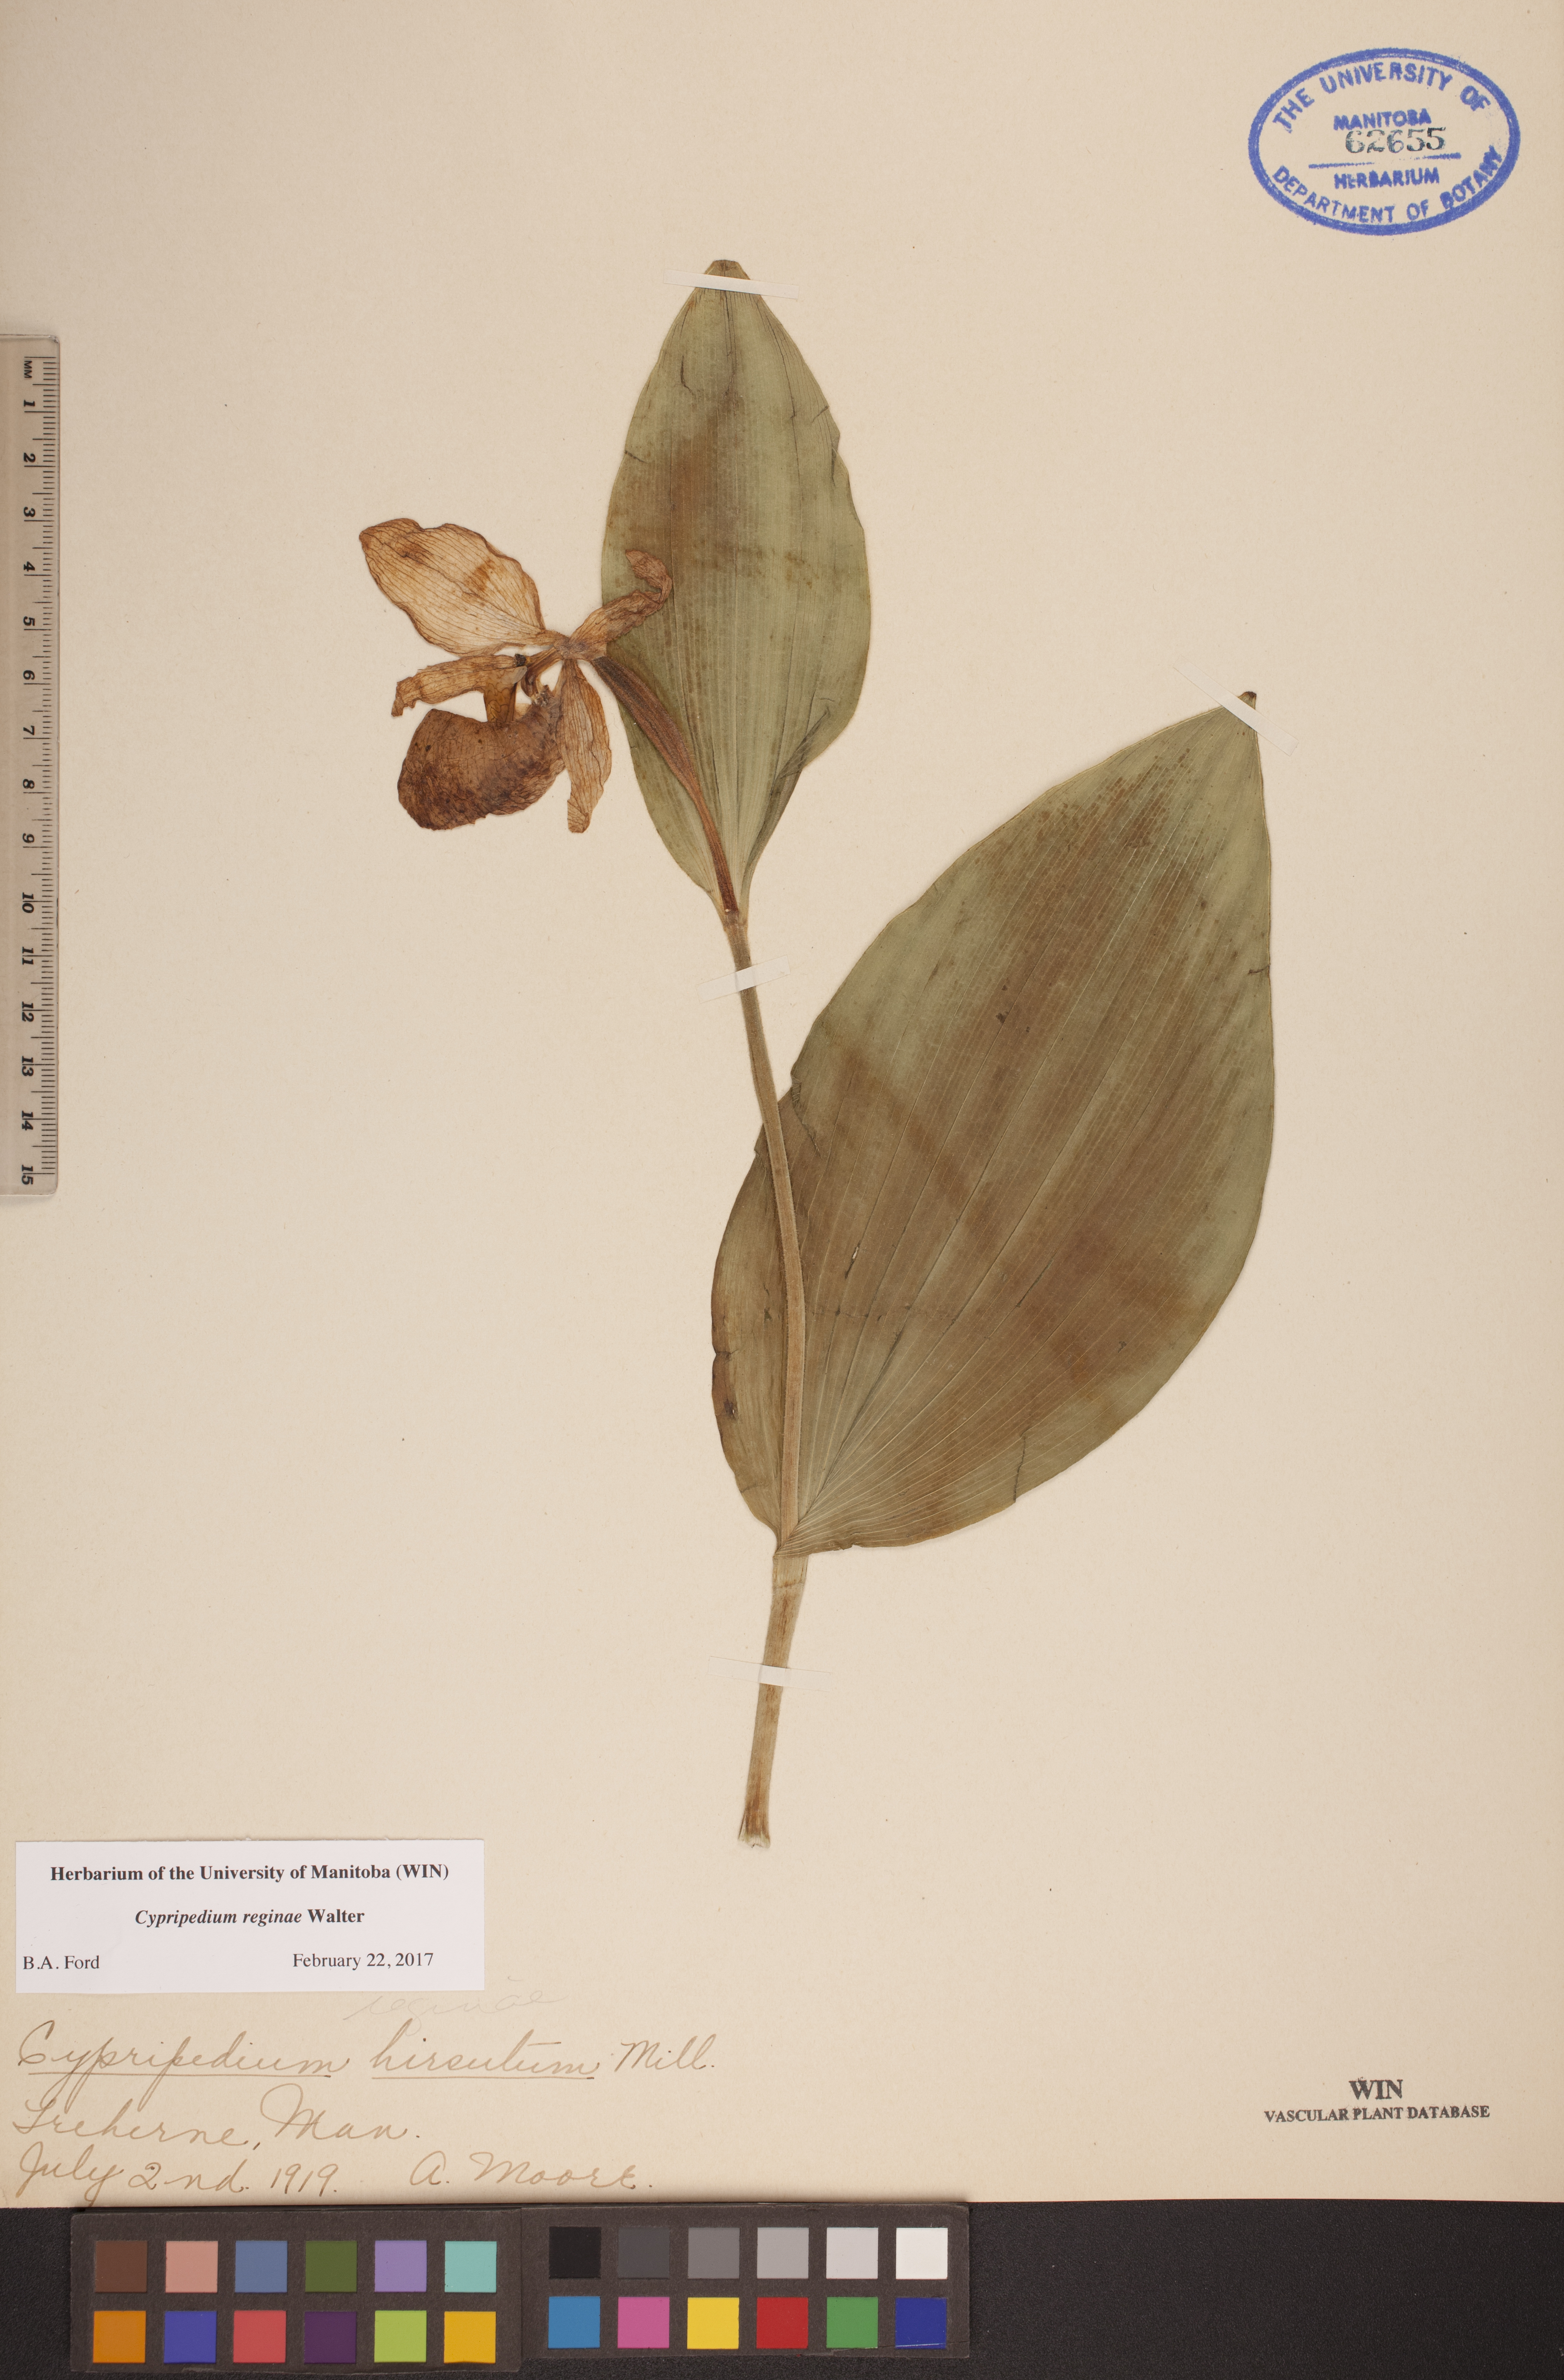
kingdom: Plantae
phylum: Tracheophyta
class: Liliopsida
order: Asparagales
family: Orchidaceae
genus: Cypripedium
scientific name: Cypripedium reginae
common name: Queen lady's-slipper
